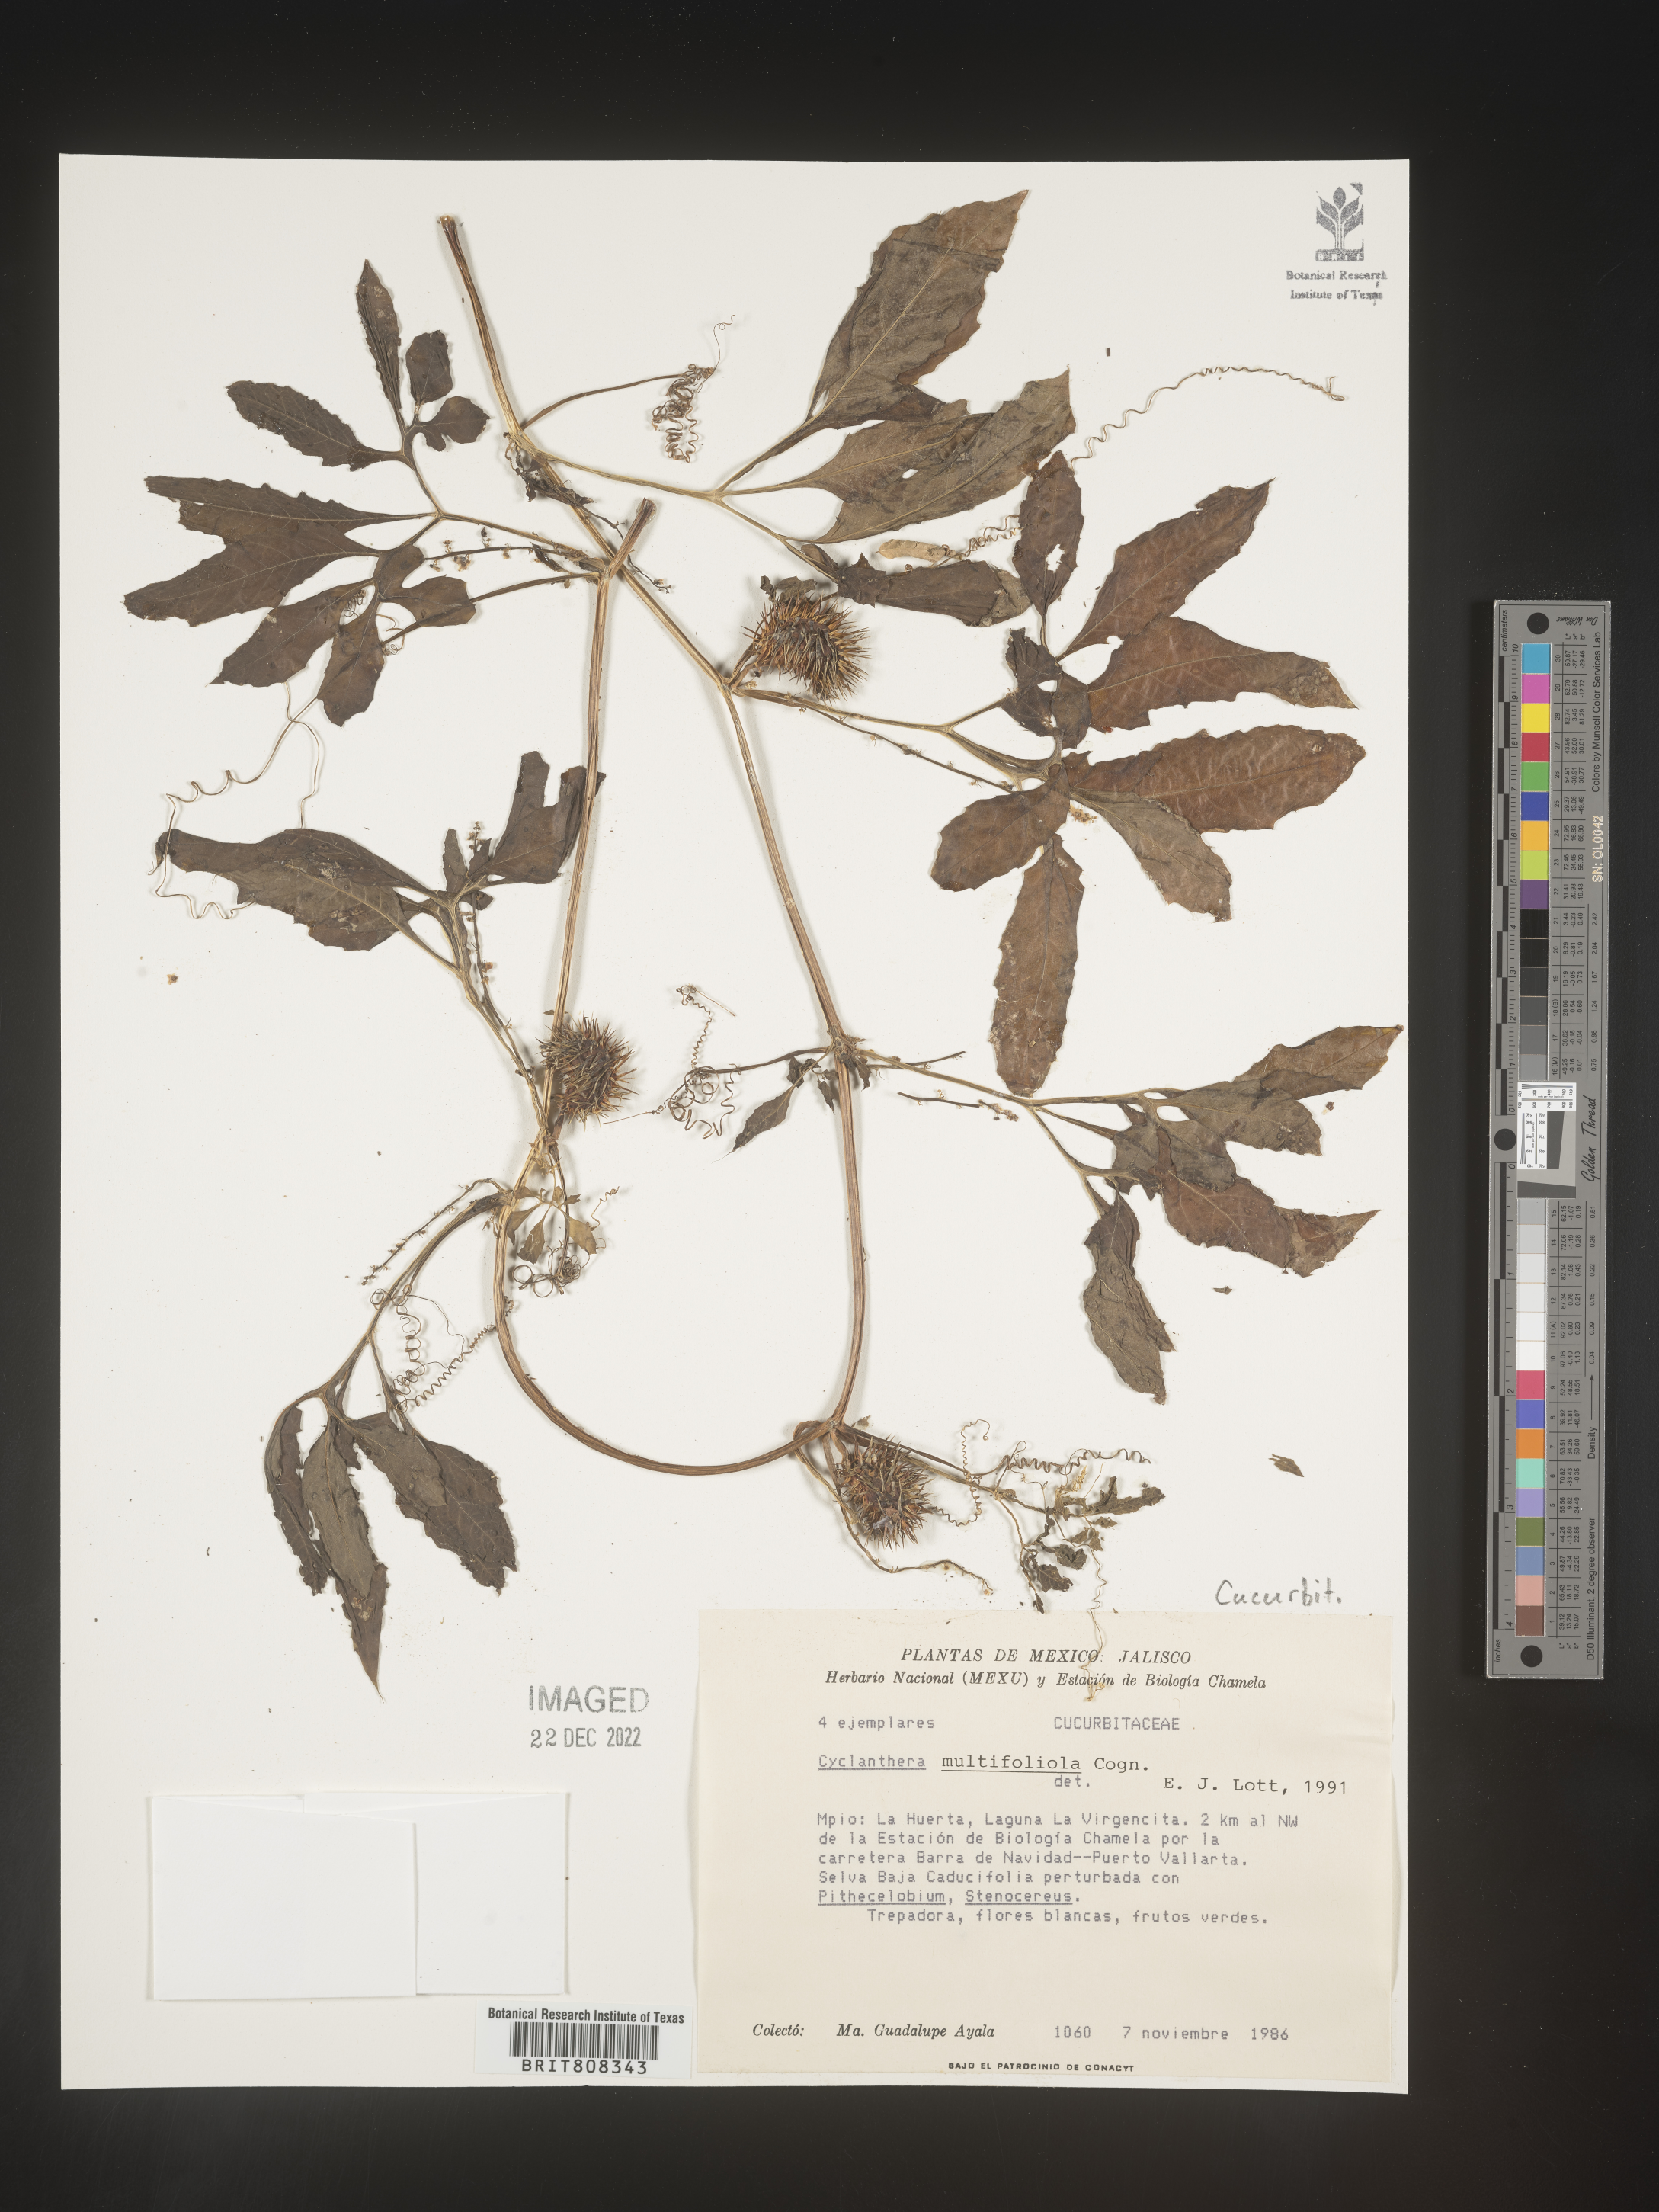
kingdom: Plantae
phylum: Tracheophyta
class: Magnoliopsida
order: Cucurbitales
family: Cucurbitaceae
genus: Cyclanthera
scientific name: Cyclanthera
